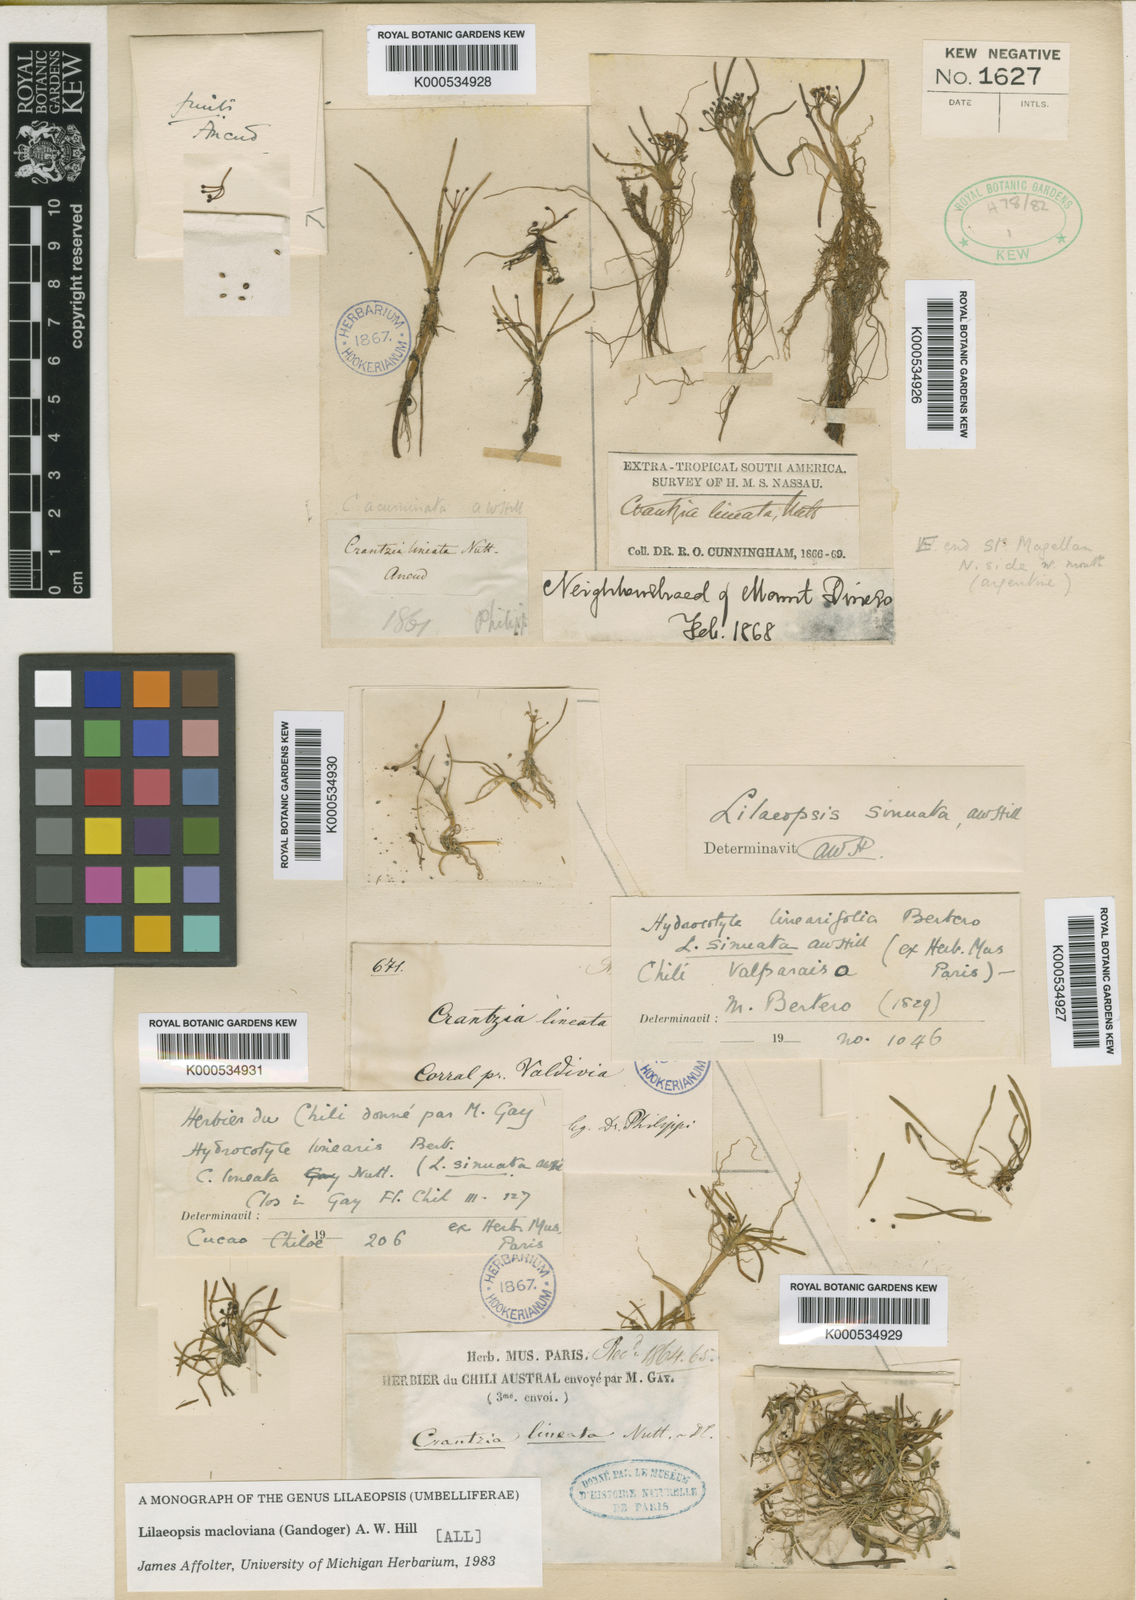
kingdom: Plantae
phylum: Tracheophyta
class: Magnoliopsida
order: Apiales
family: Apiaceae
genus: Lilaeopsis
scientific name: Lilaeopsis macloviana
